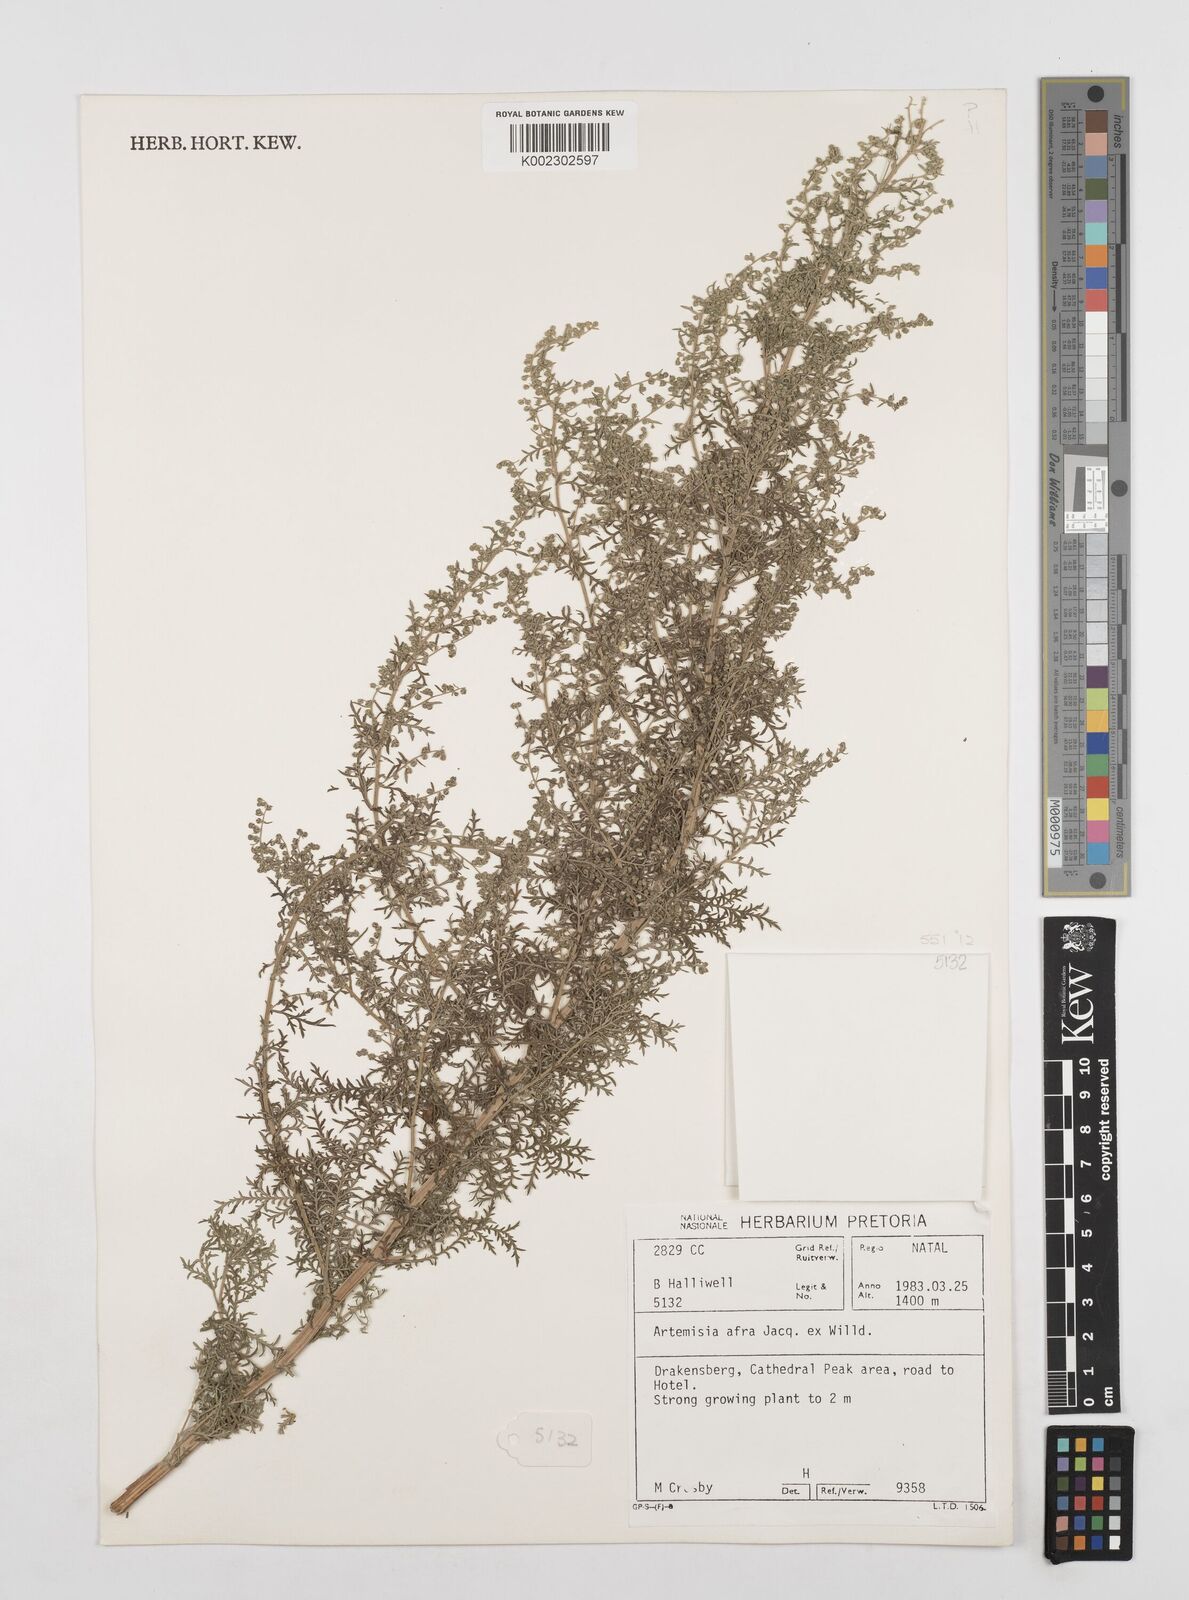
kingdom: Plantae
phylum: Tracheophyta
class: Magnoliopsida
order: Asterales
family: Asteraceae
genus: Artemisia
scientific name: Artemisia afra
